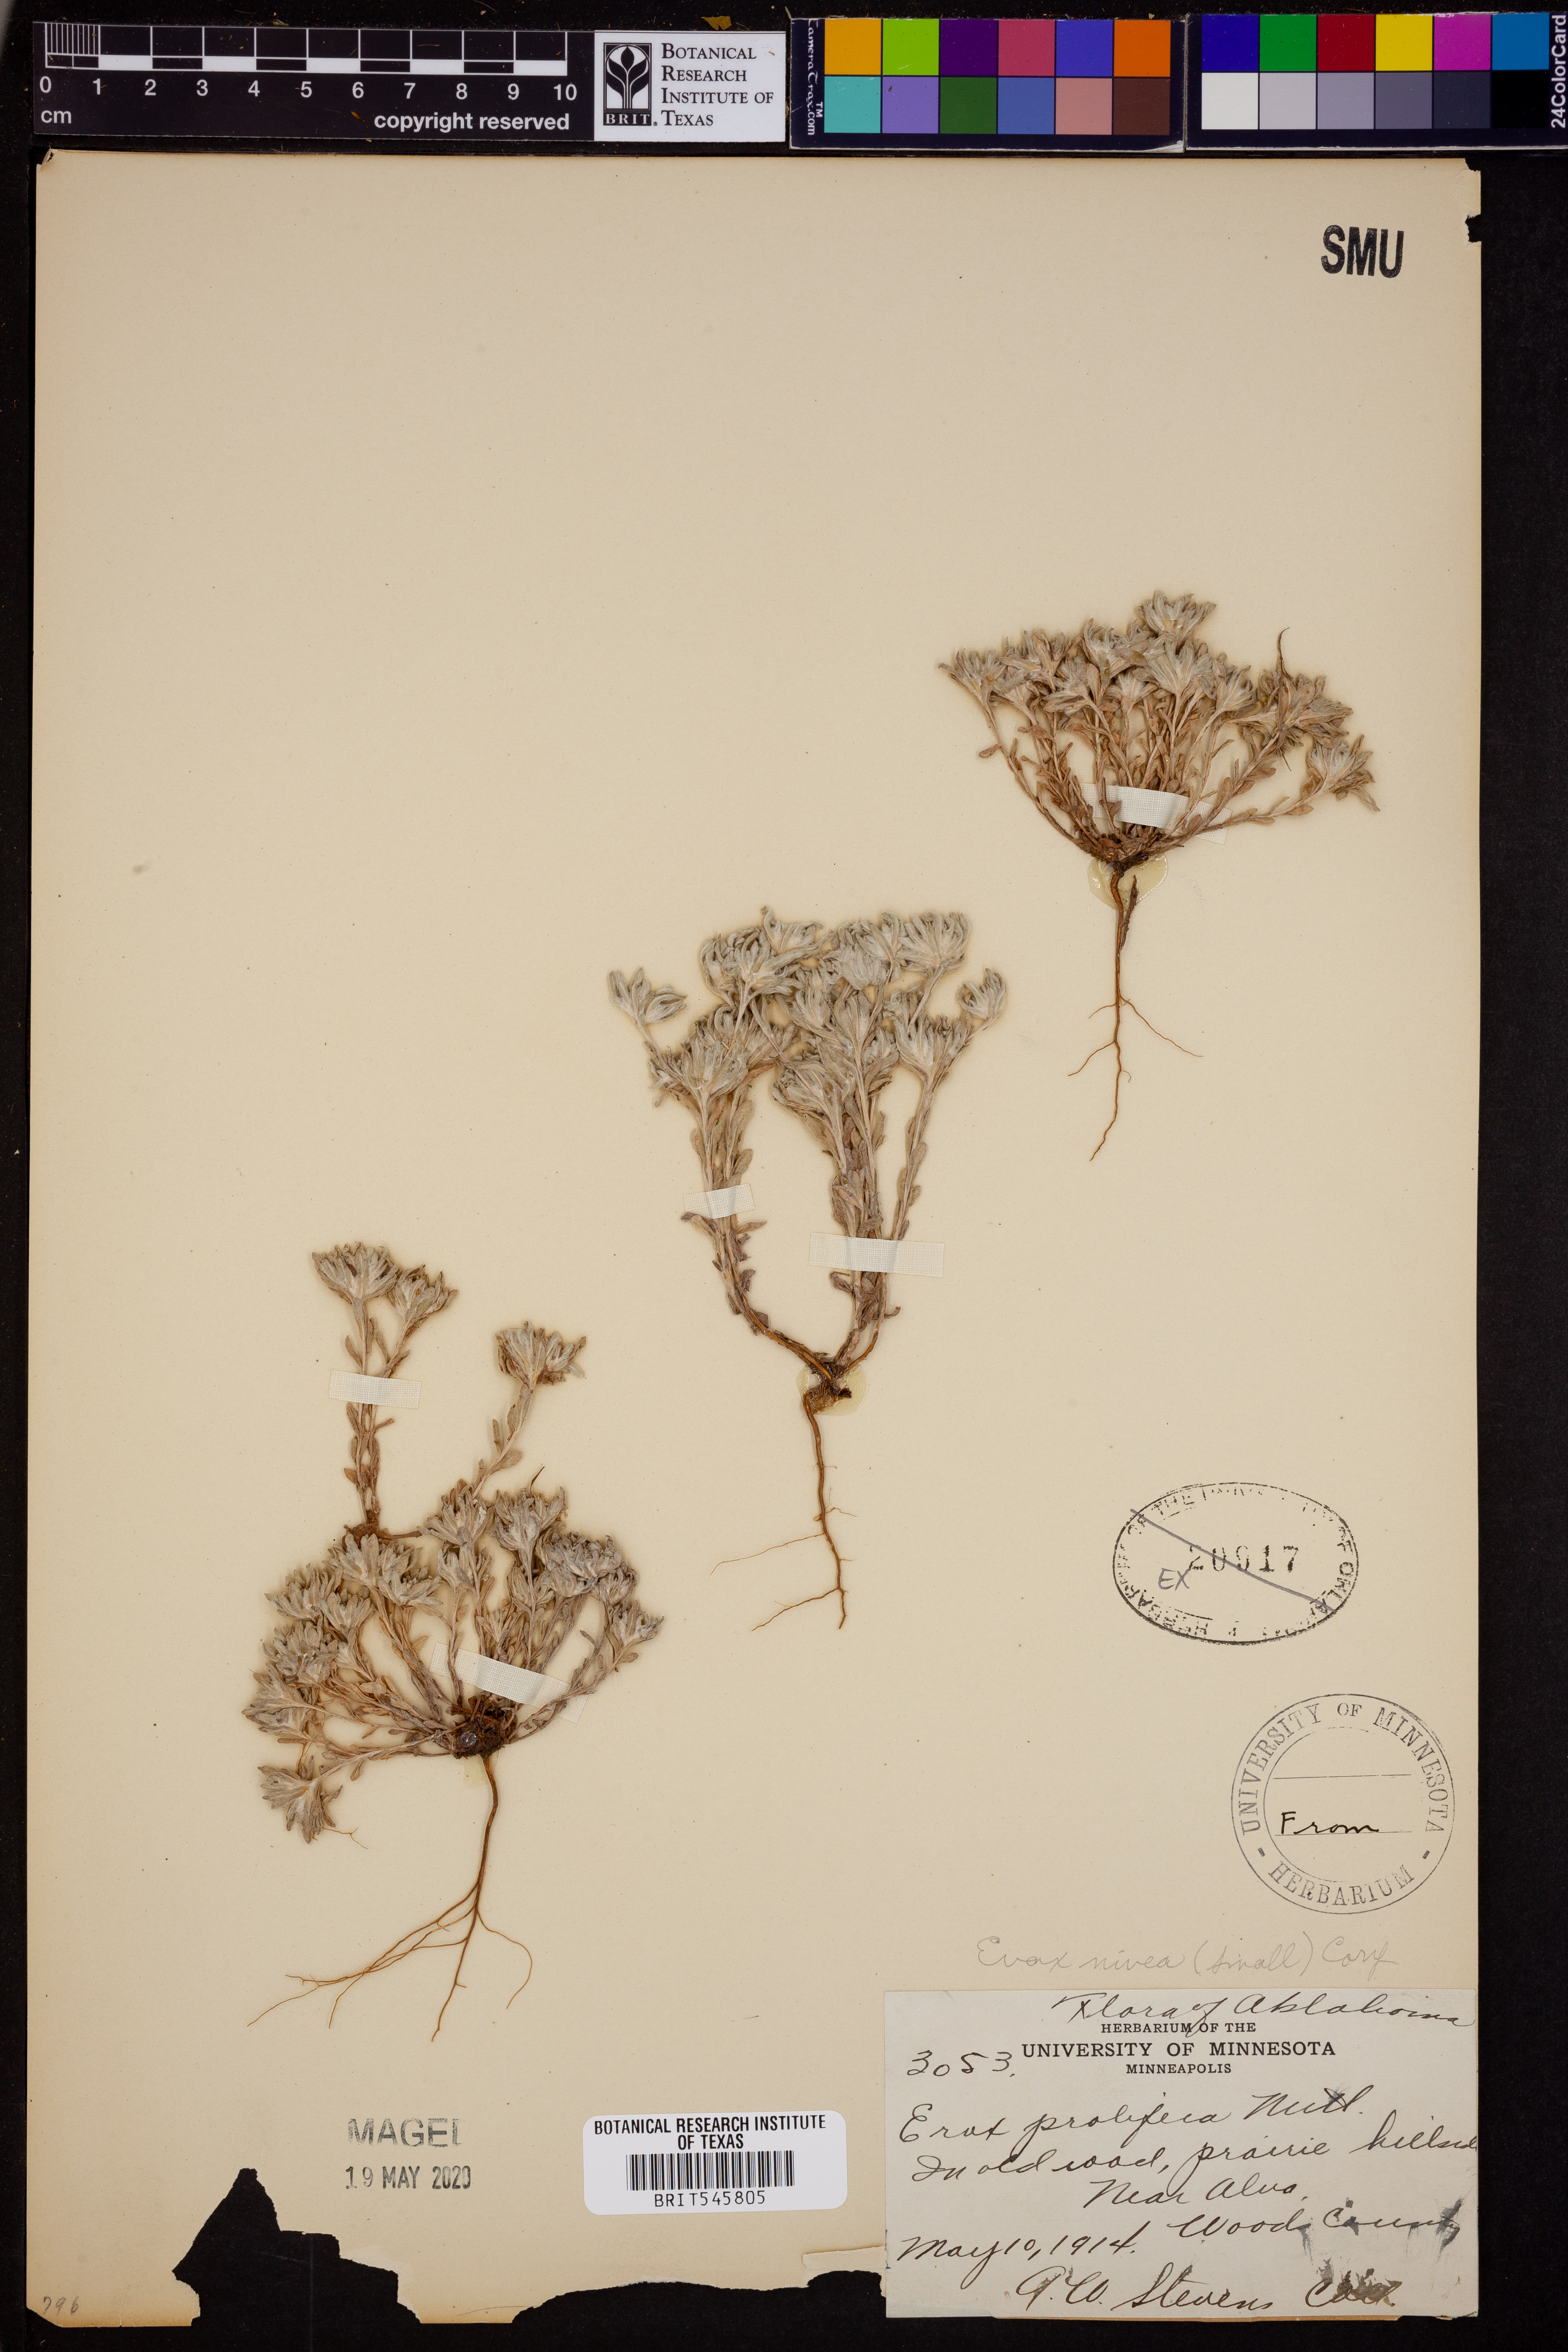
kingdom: Plantae
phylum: Tracheophyta
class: Magnoliopsida
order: Asterales
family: Asteraceae
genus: Diaperia
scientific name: Diaperia prolifera
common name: Big-head rabbit-tobacco
